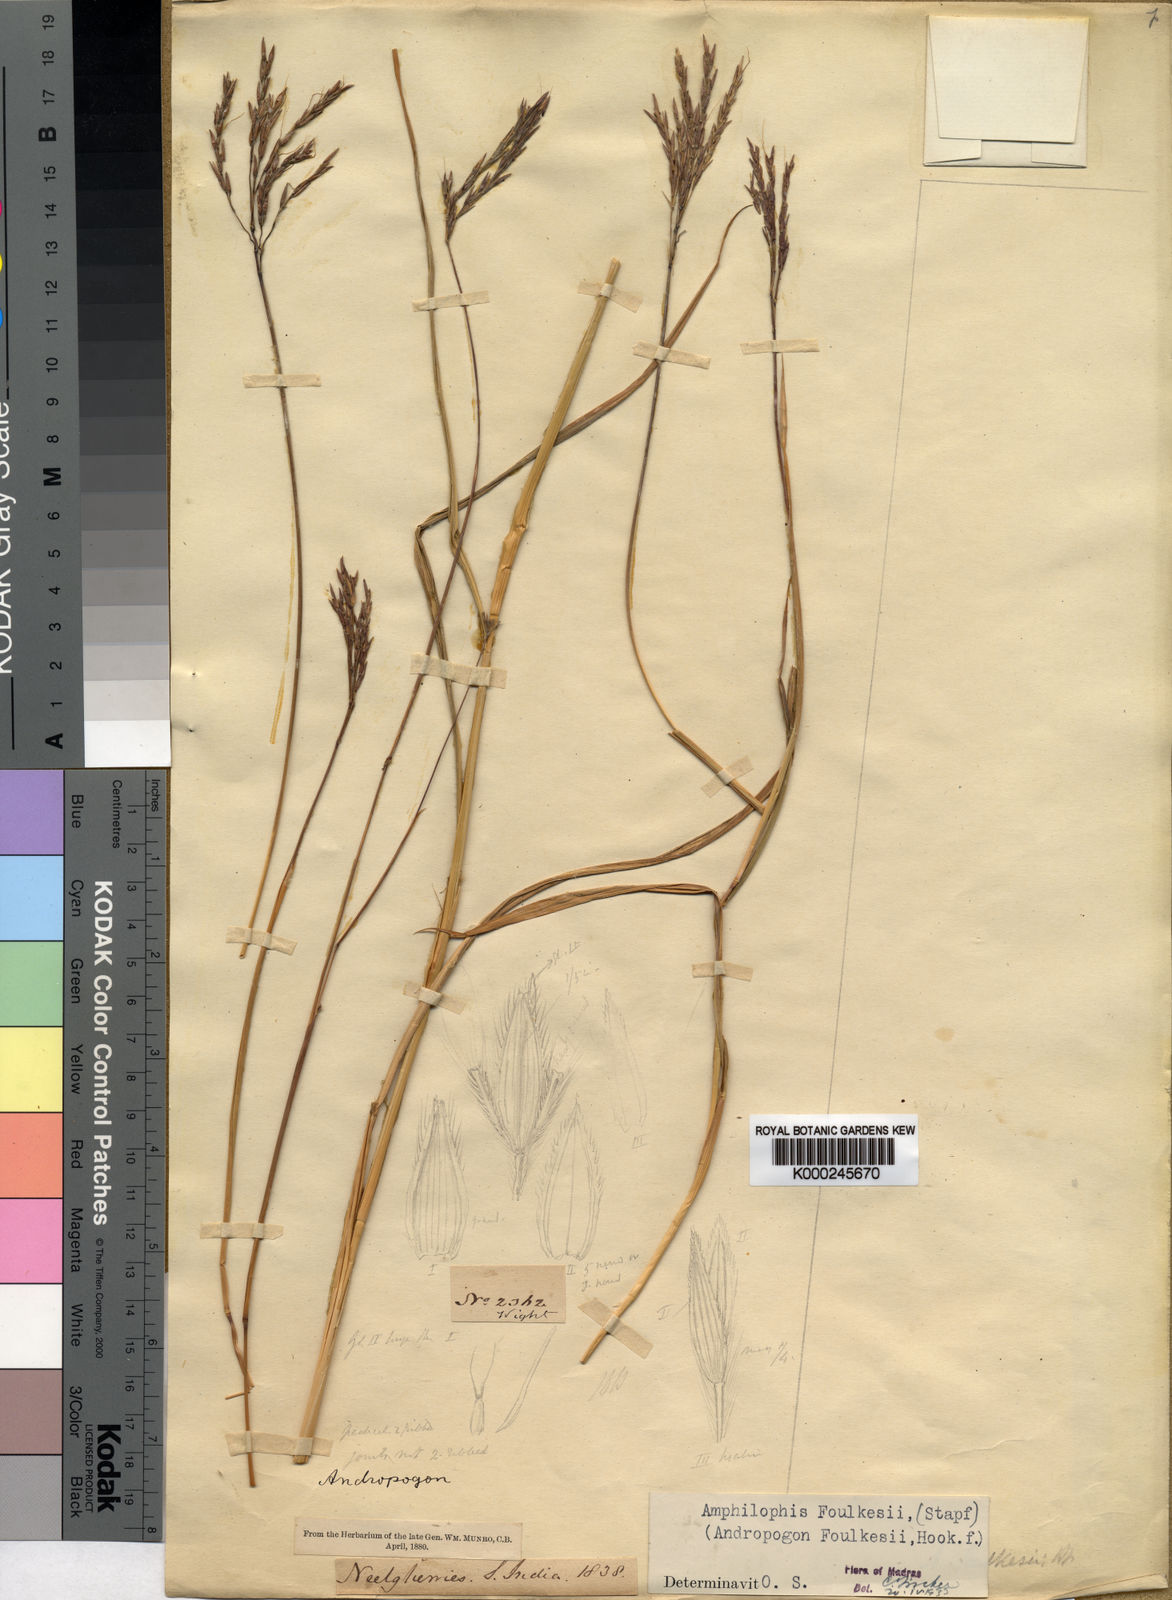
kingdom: Plantae
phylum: Tracheophyta
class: Liliopsida
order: Poales
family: Poaceae
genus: Dichanthium
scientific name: Dichanthium foulkesii
